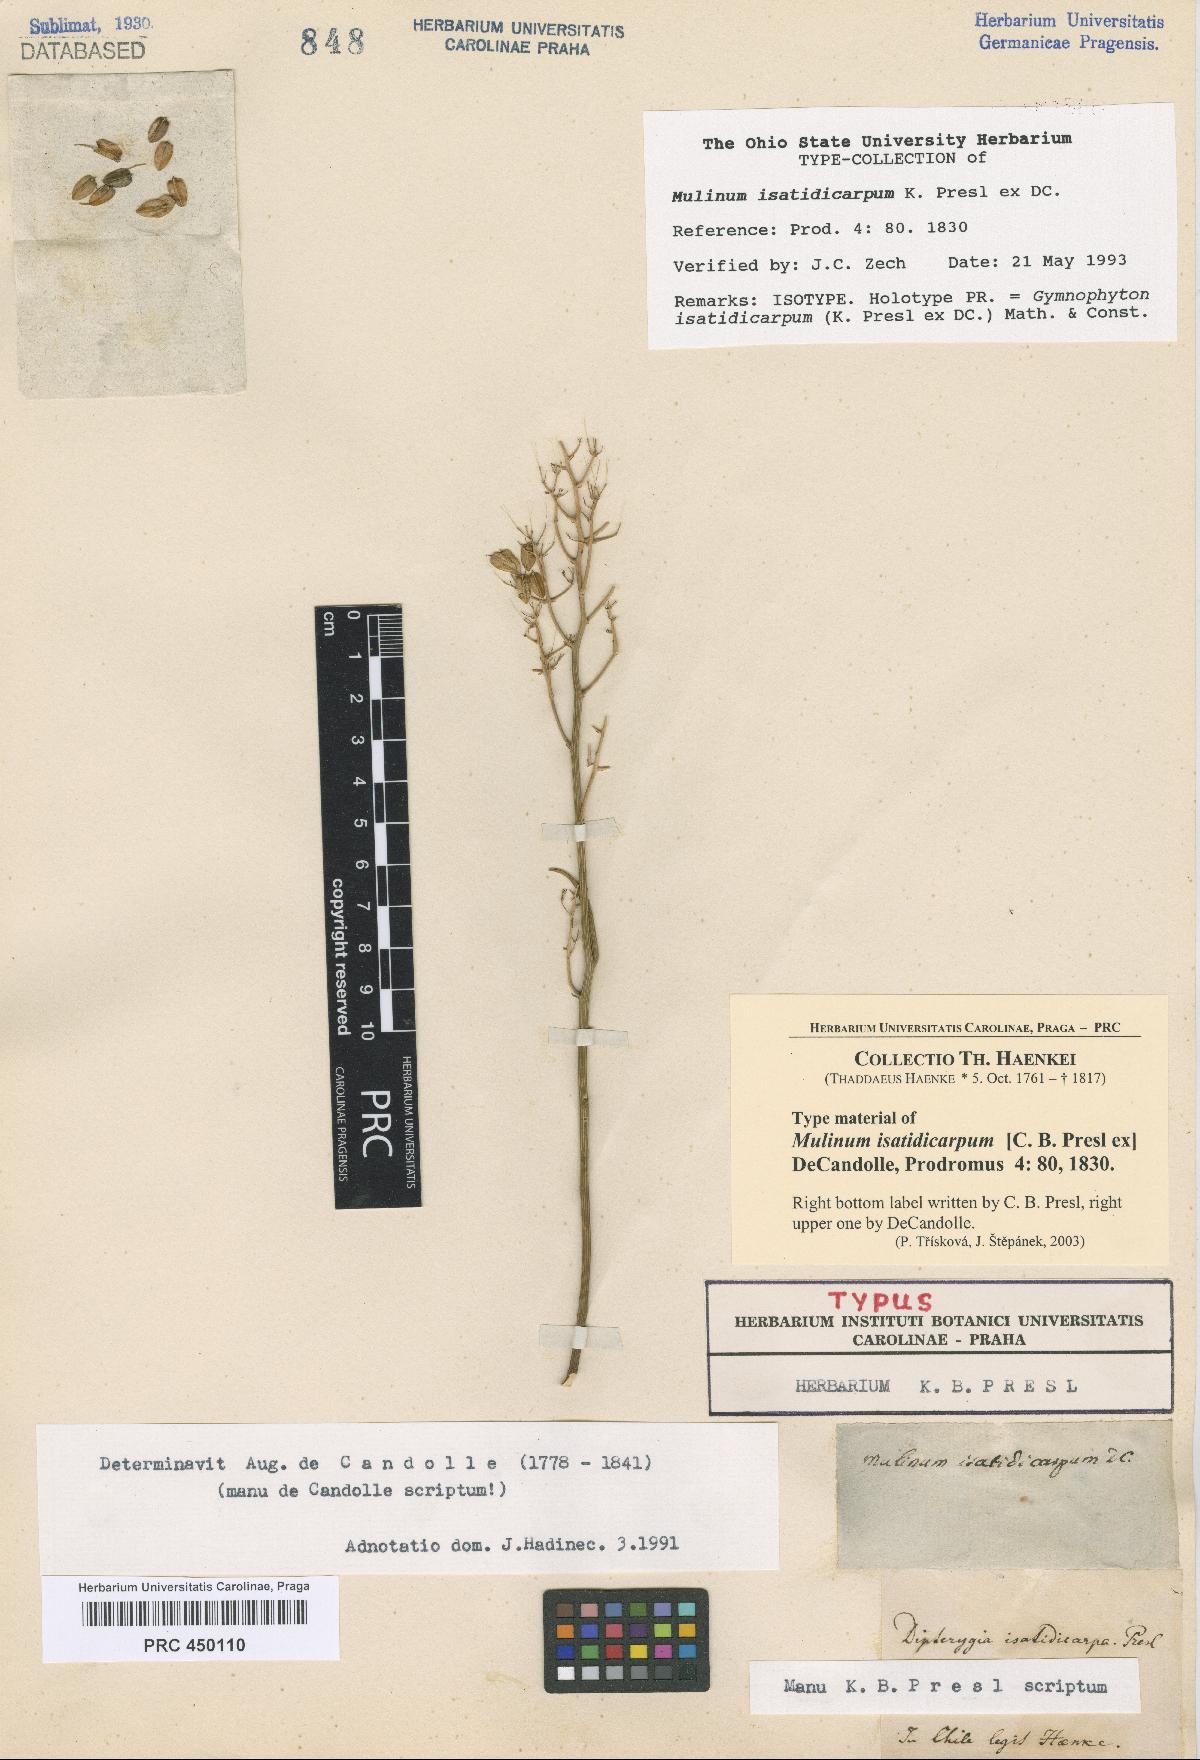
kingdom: Plantae
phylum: Tracheophyta
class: Magnoliopsida
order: Apiales
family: Apiaceae
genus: Gymnophyton
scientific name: Gymnophyton isatidicarpum
